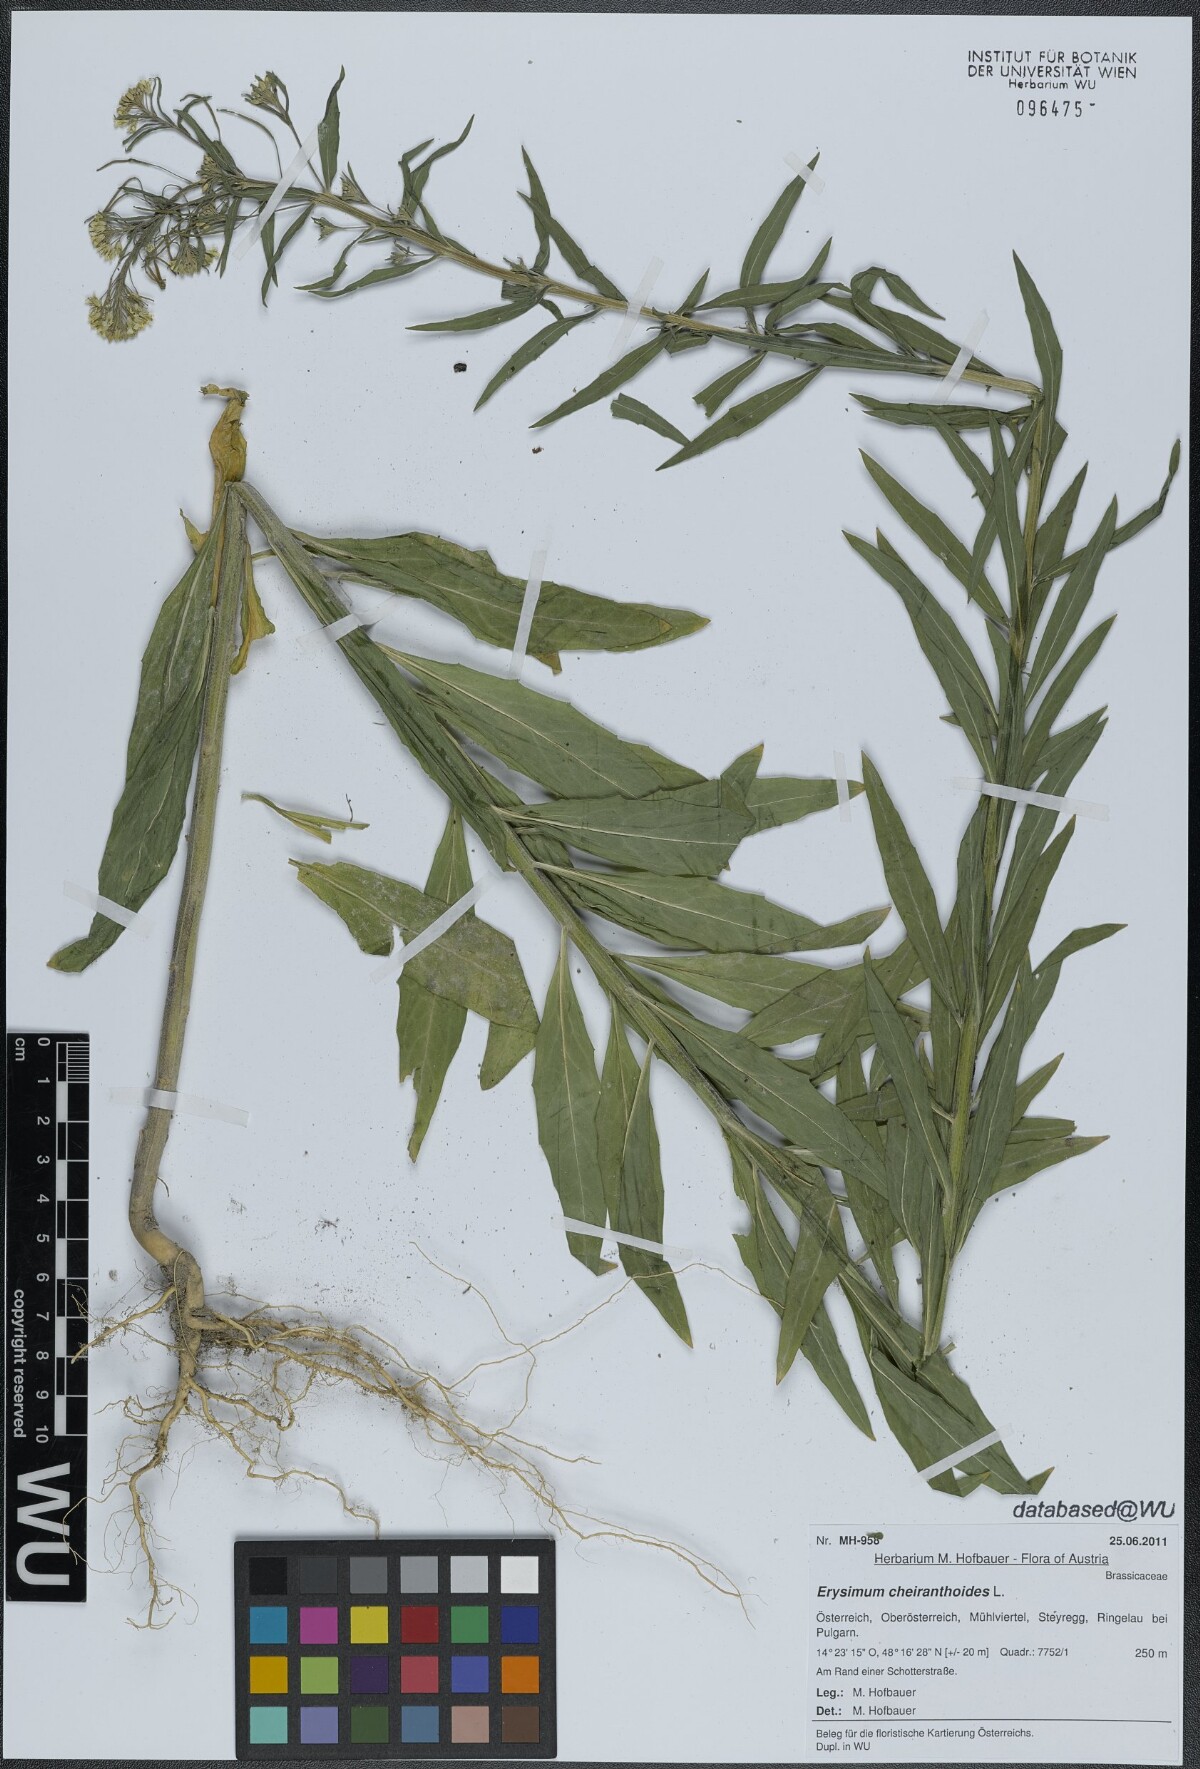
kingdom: Plantae
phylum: Tracheophyta
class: Magnoliopsida
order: Brassicales
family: Brassicaceae
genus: Erysimum
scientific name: Erysimum cheiranthoides
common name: Treacle mustard
